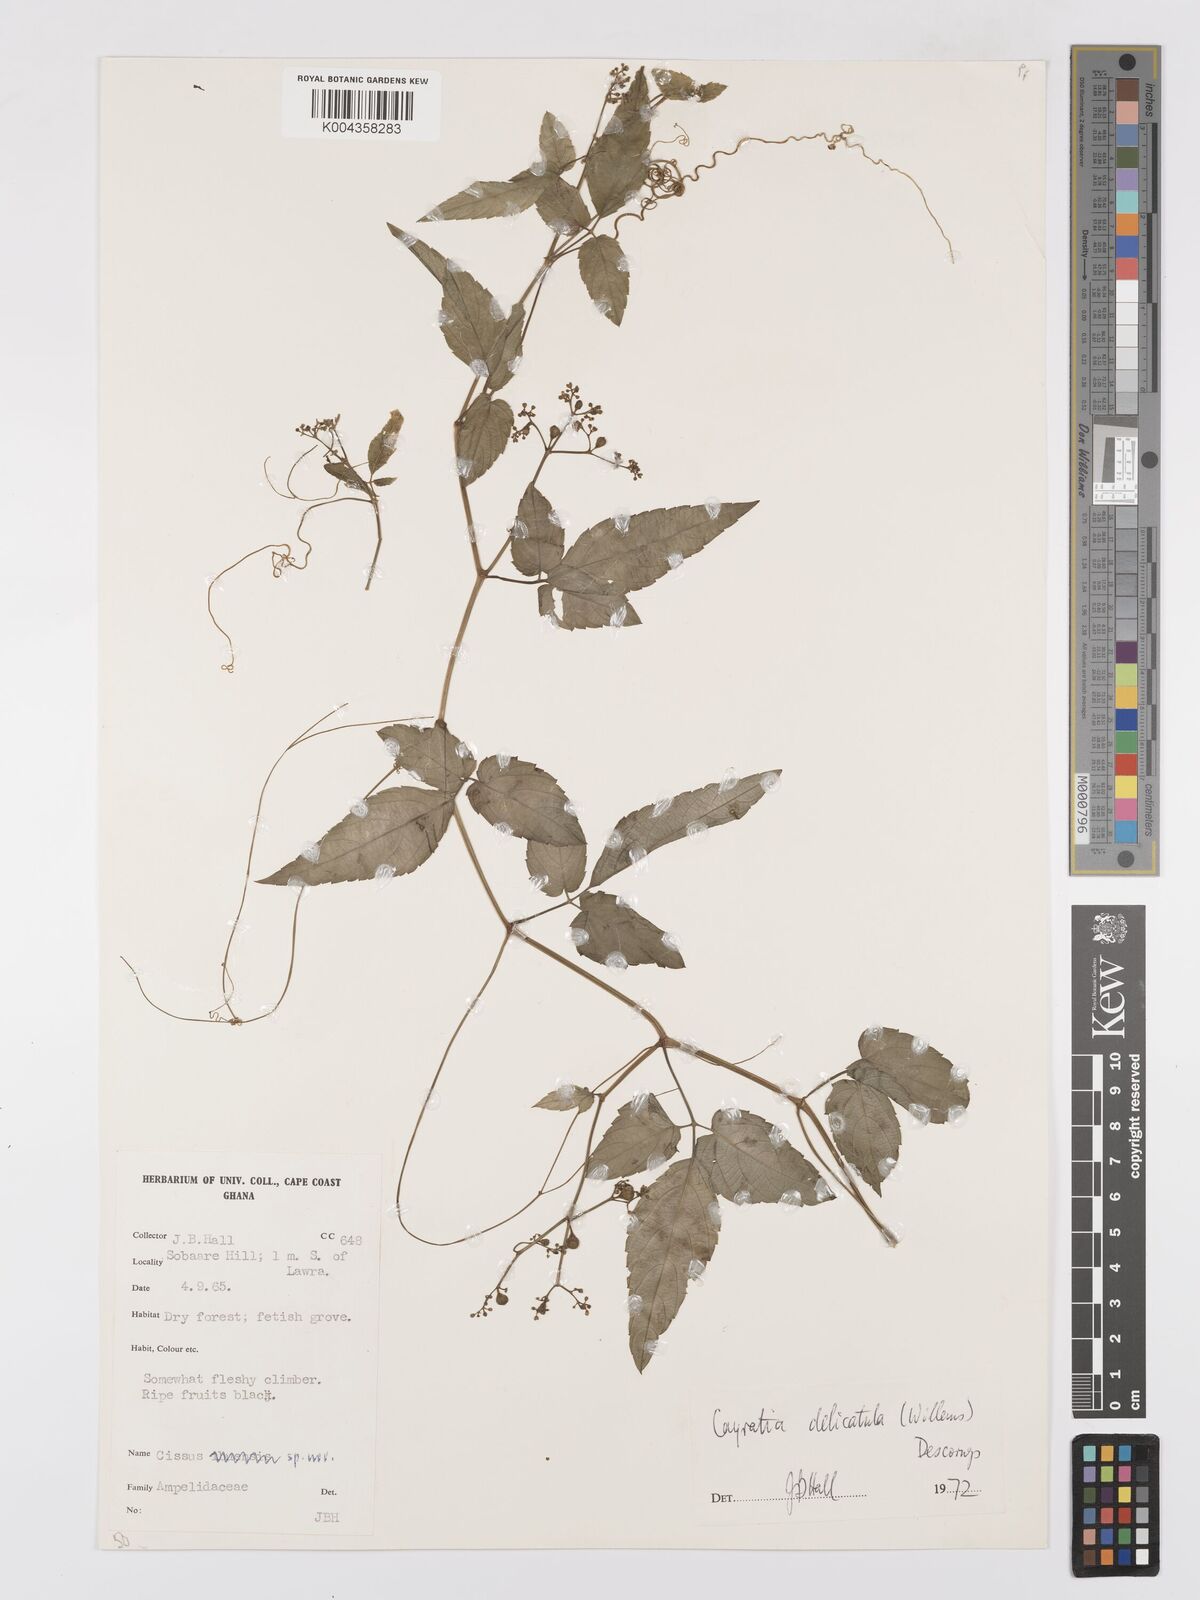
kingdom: Plantae
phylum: Tracheophyta
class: Magnoliopsida
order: Vitales
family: Vitaceae
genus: Afrocayratia
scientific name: Afrocayratia delicatula
